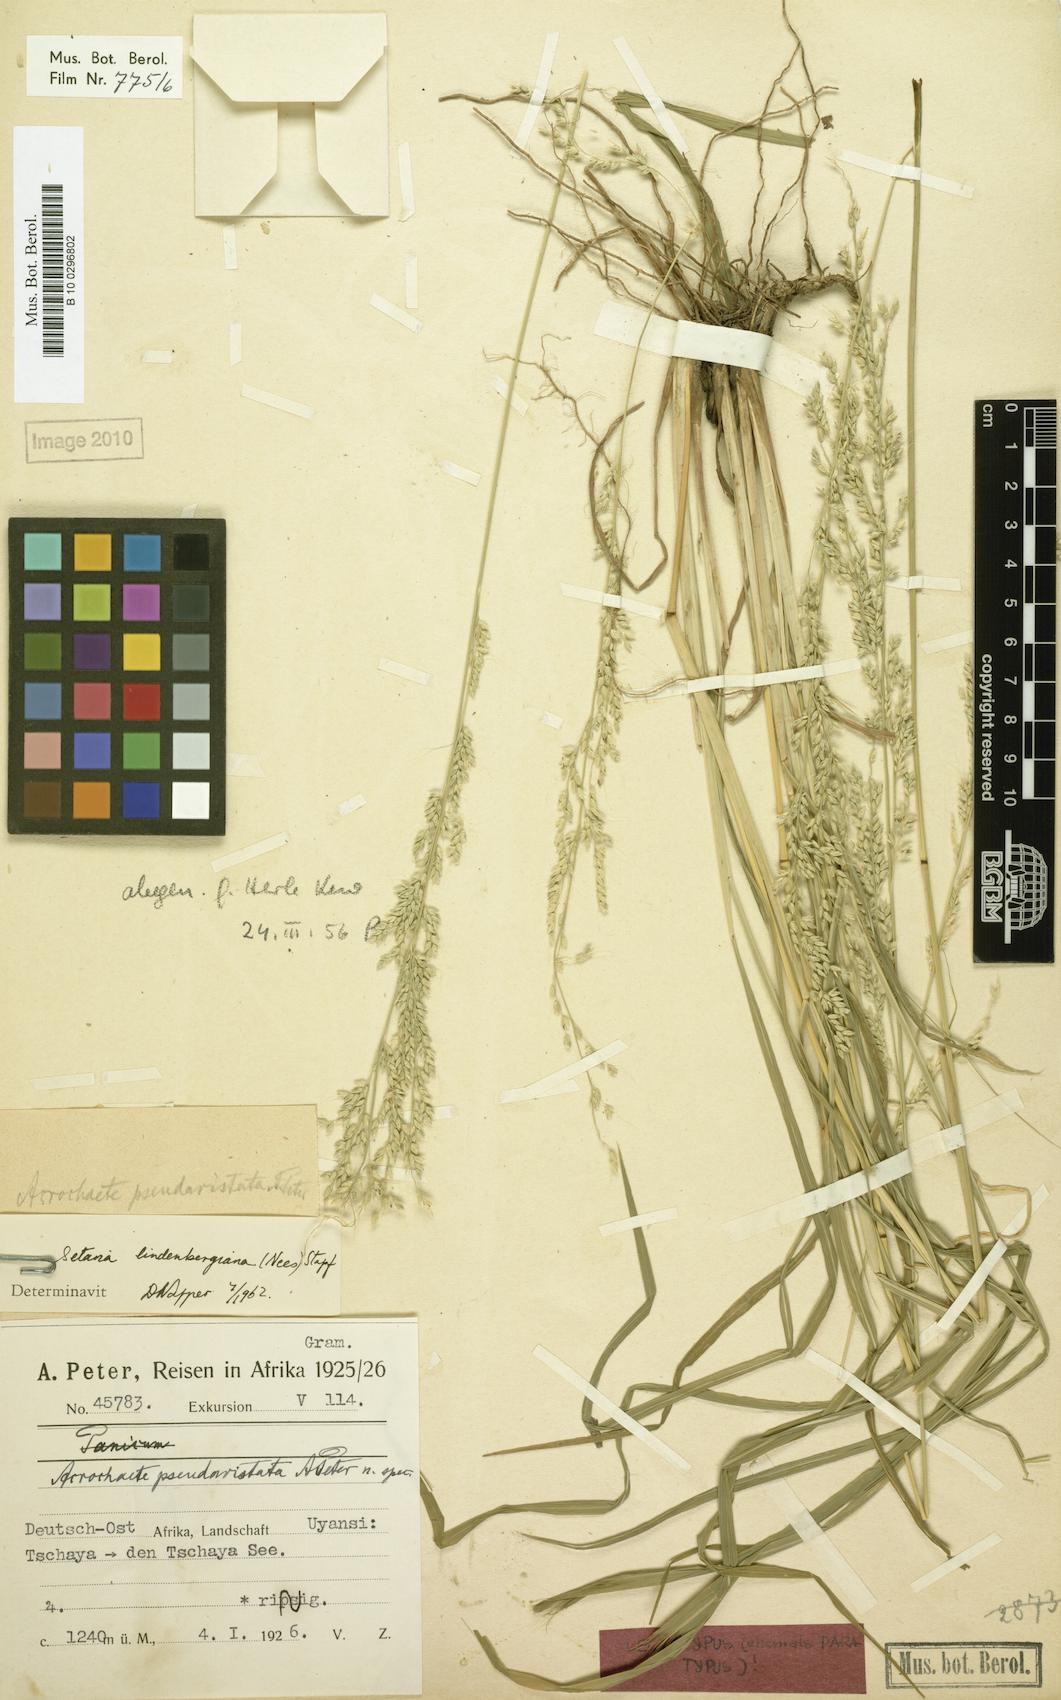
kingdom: Plantae
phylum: Tracheophyta
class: Liliopsida
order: Poales
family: Poaceae
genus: Setaria
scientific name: Setaria pseudaristata
